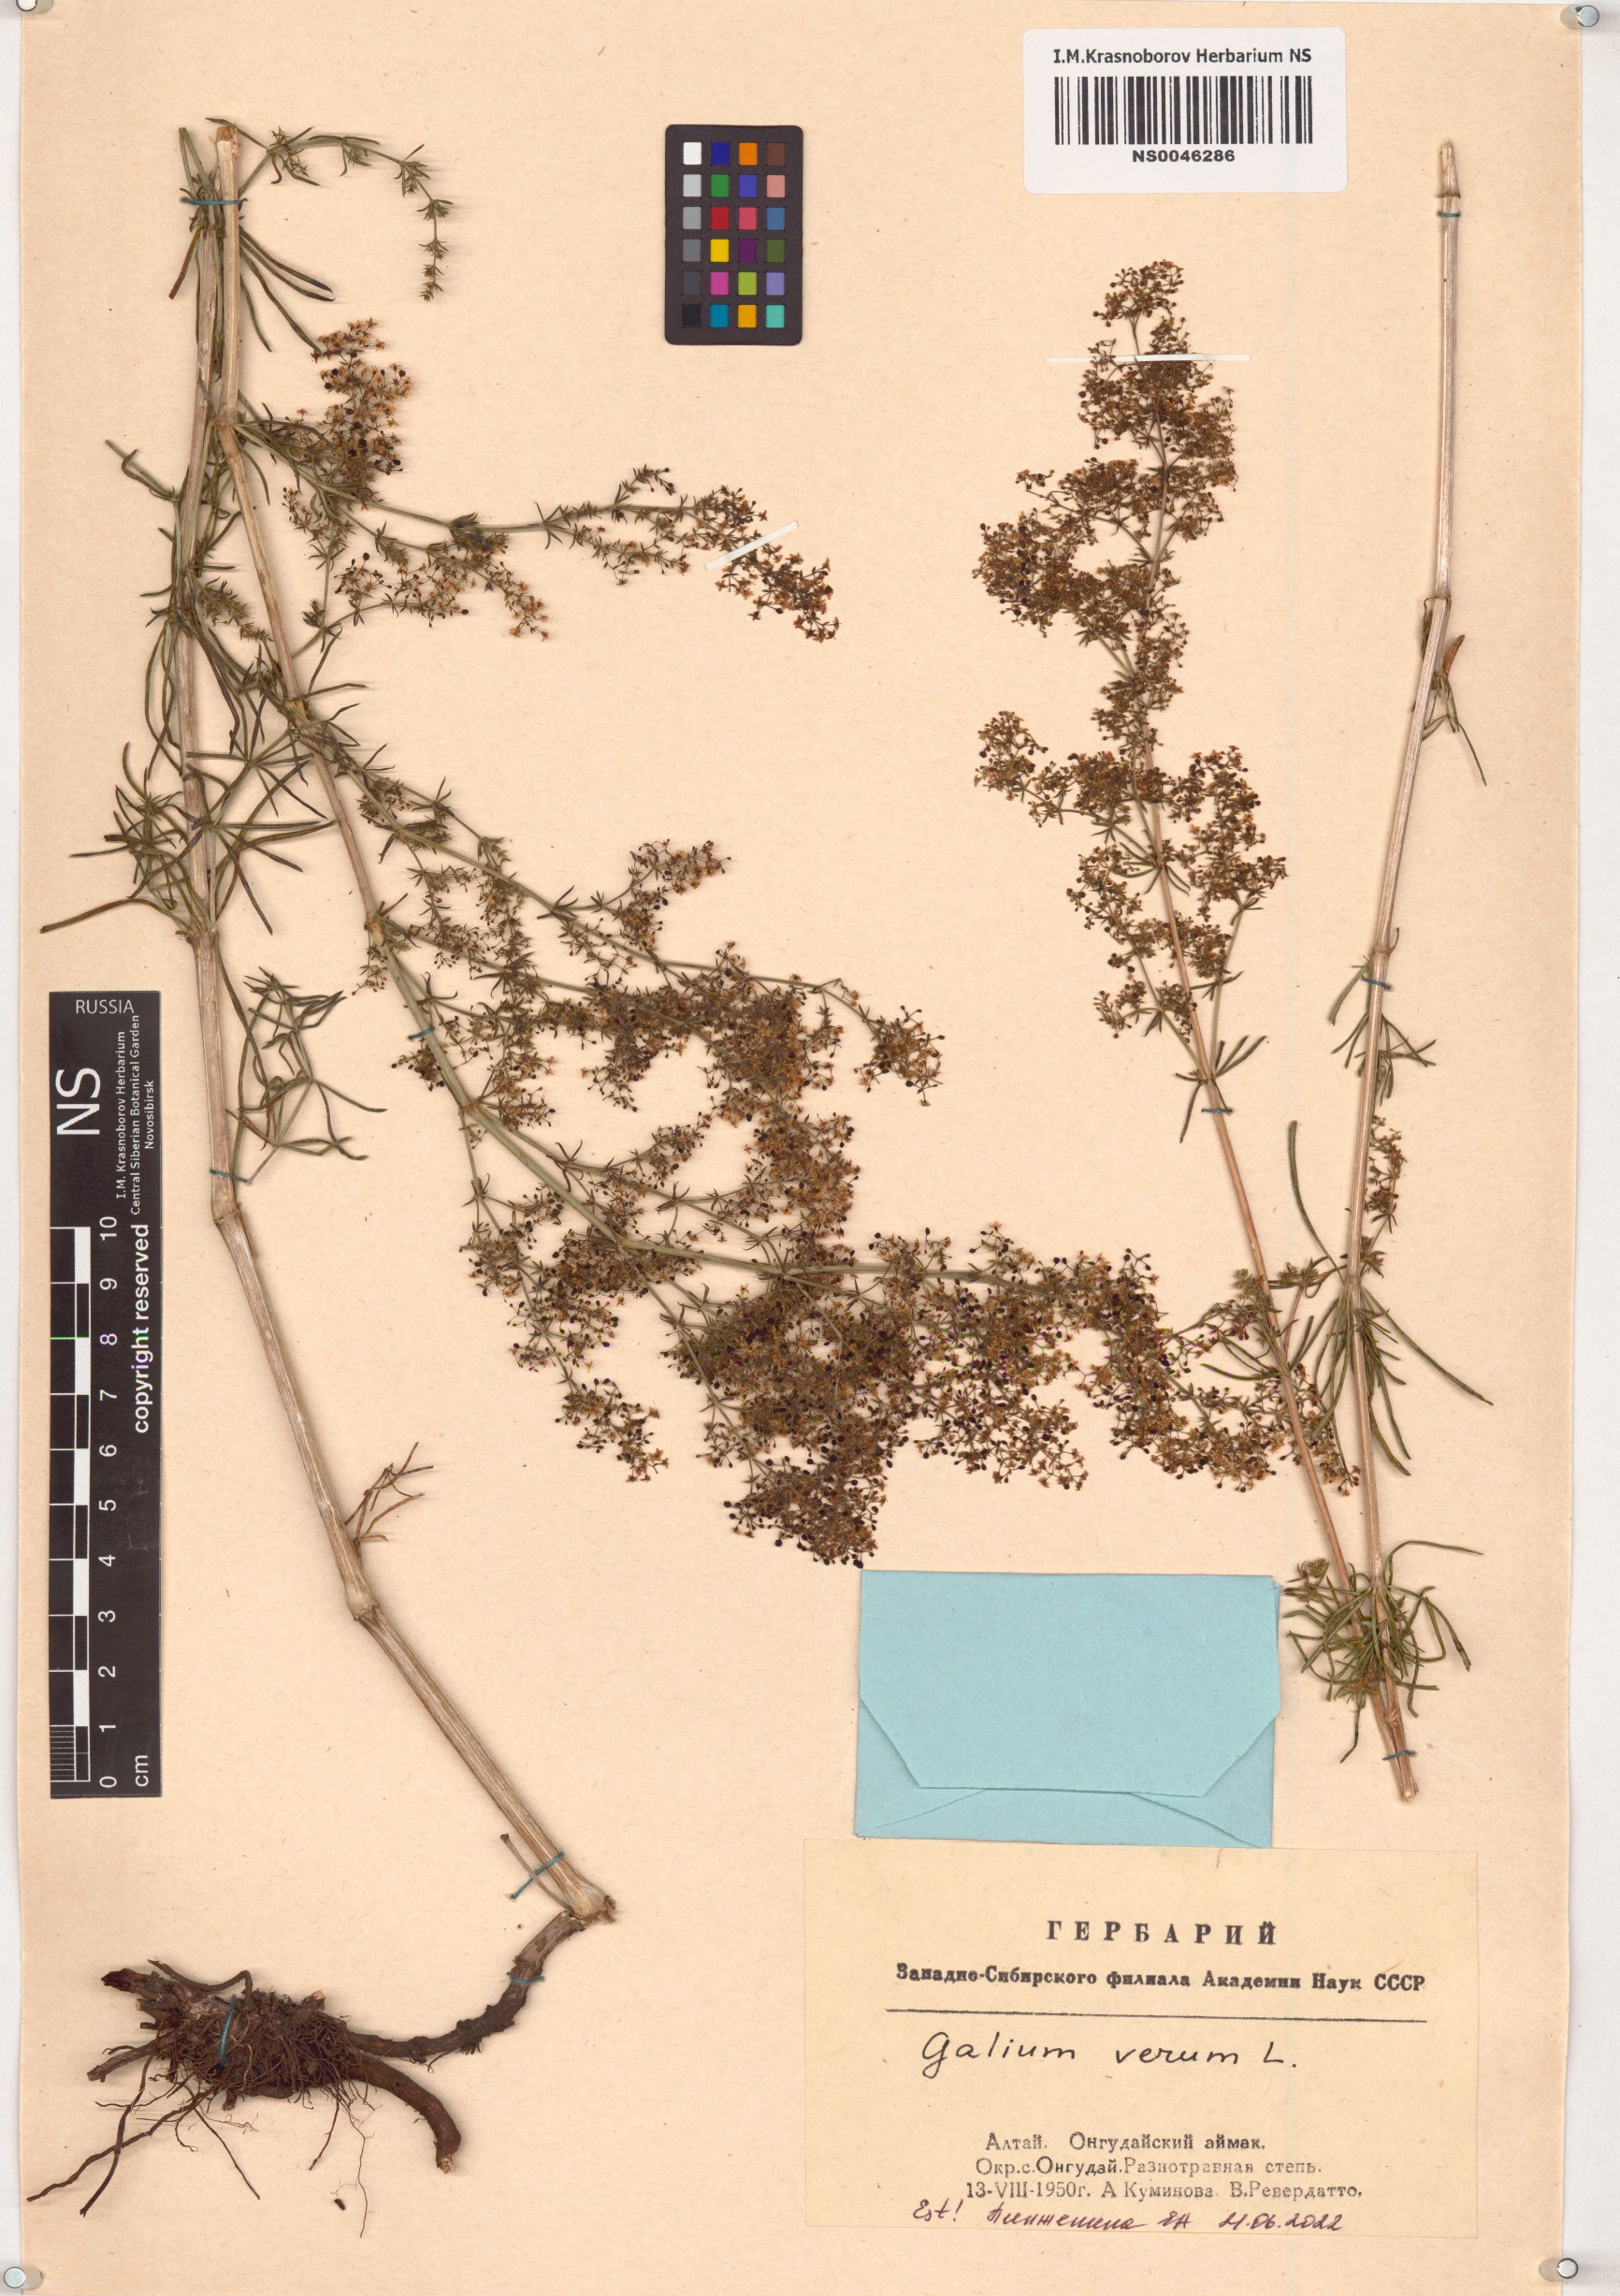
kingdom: Plantae
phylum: Tracheophyta
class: Magnoliopsida
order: Gentianales
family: Rubiaceae
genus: Galium
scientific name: Galium verum
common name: Lady's bedstraw
